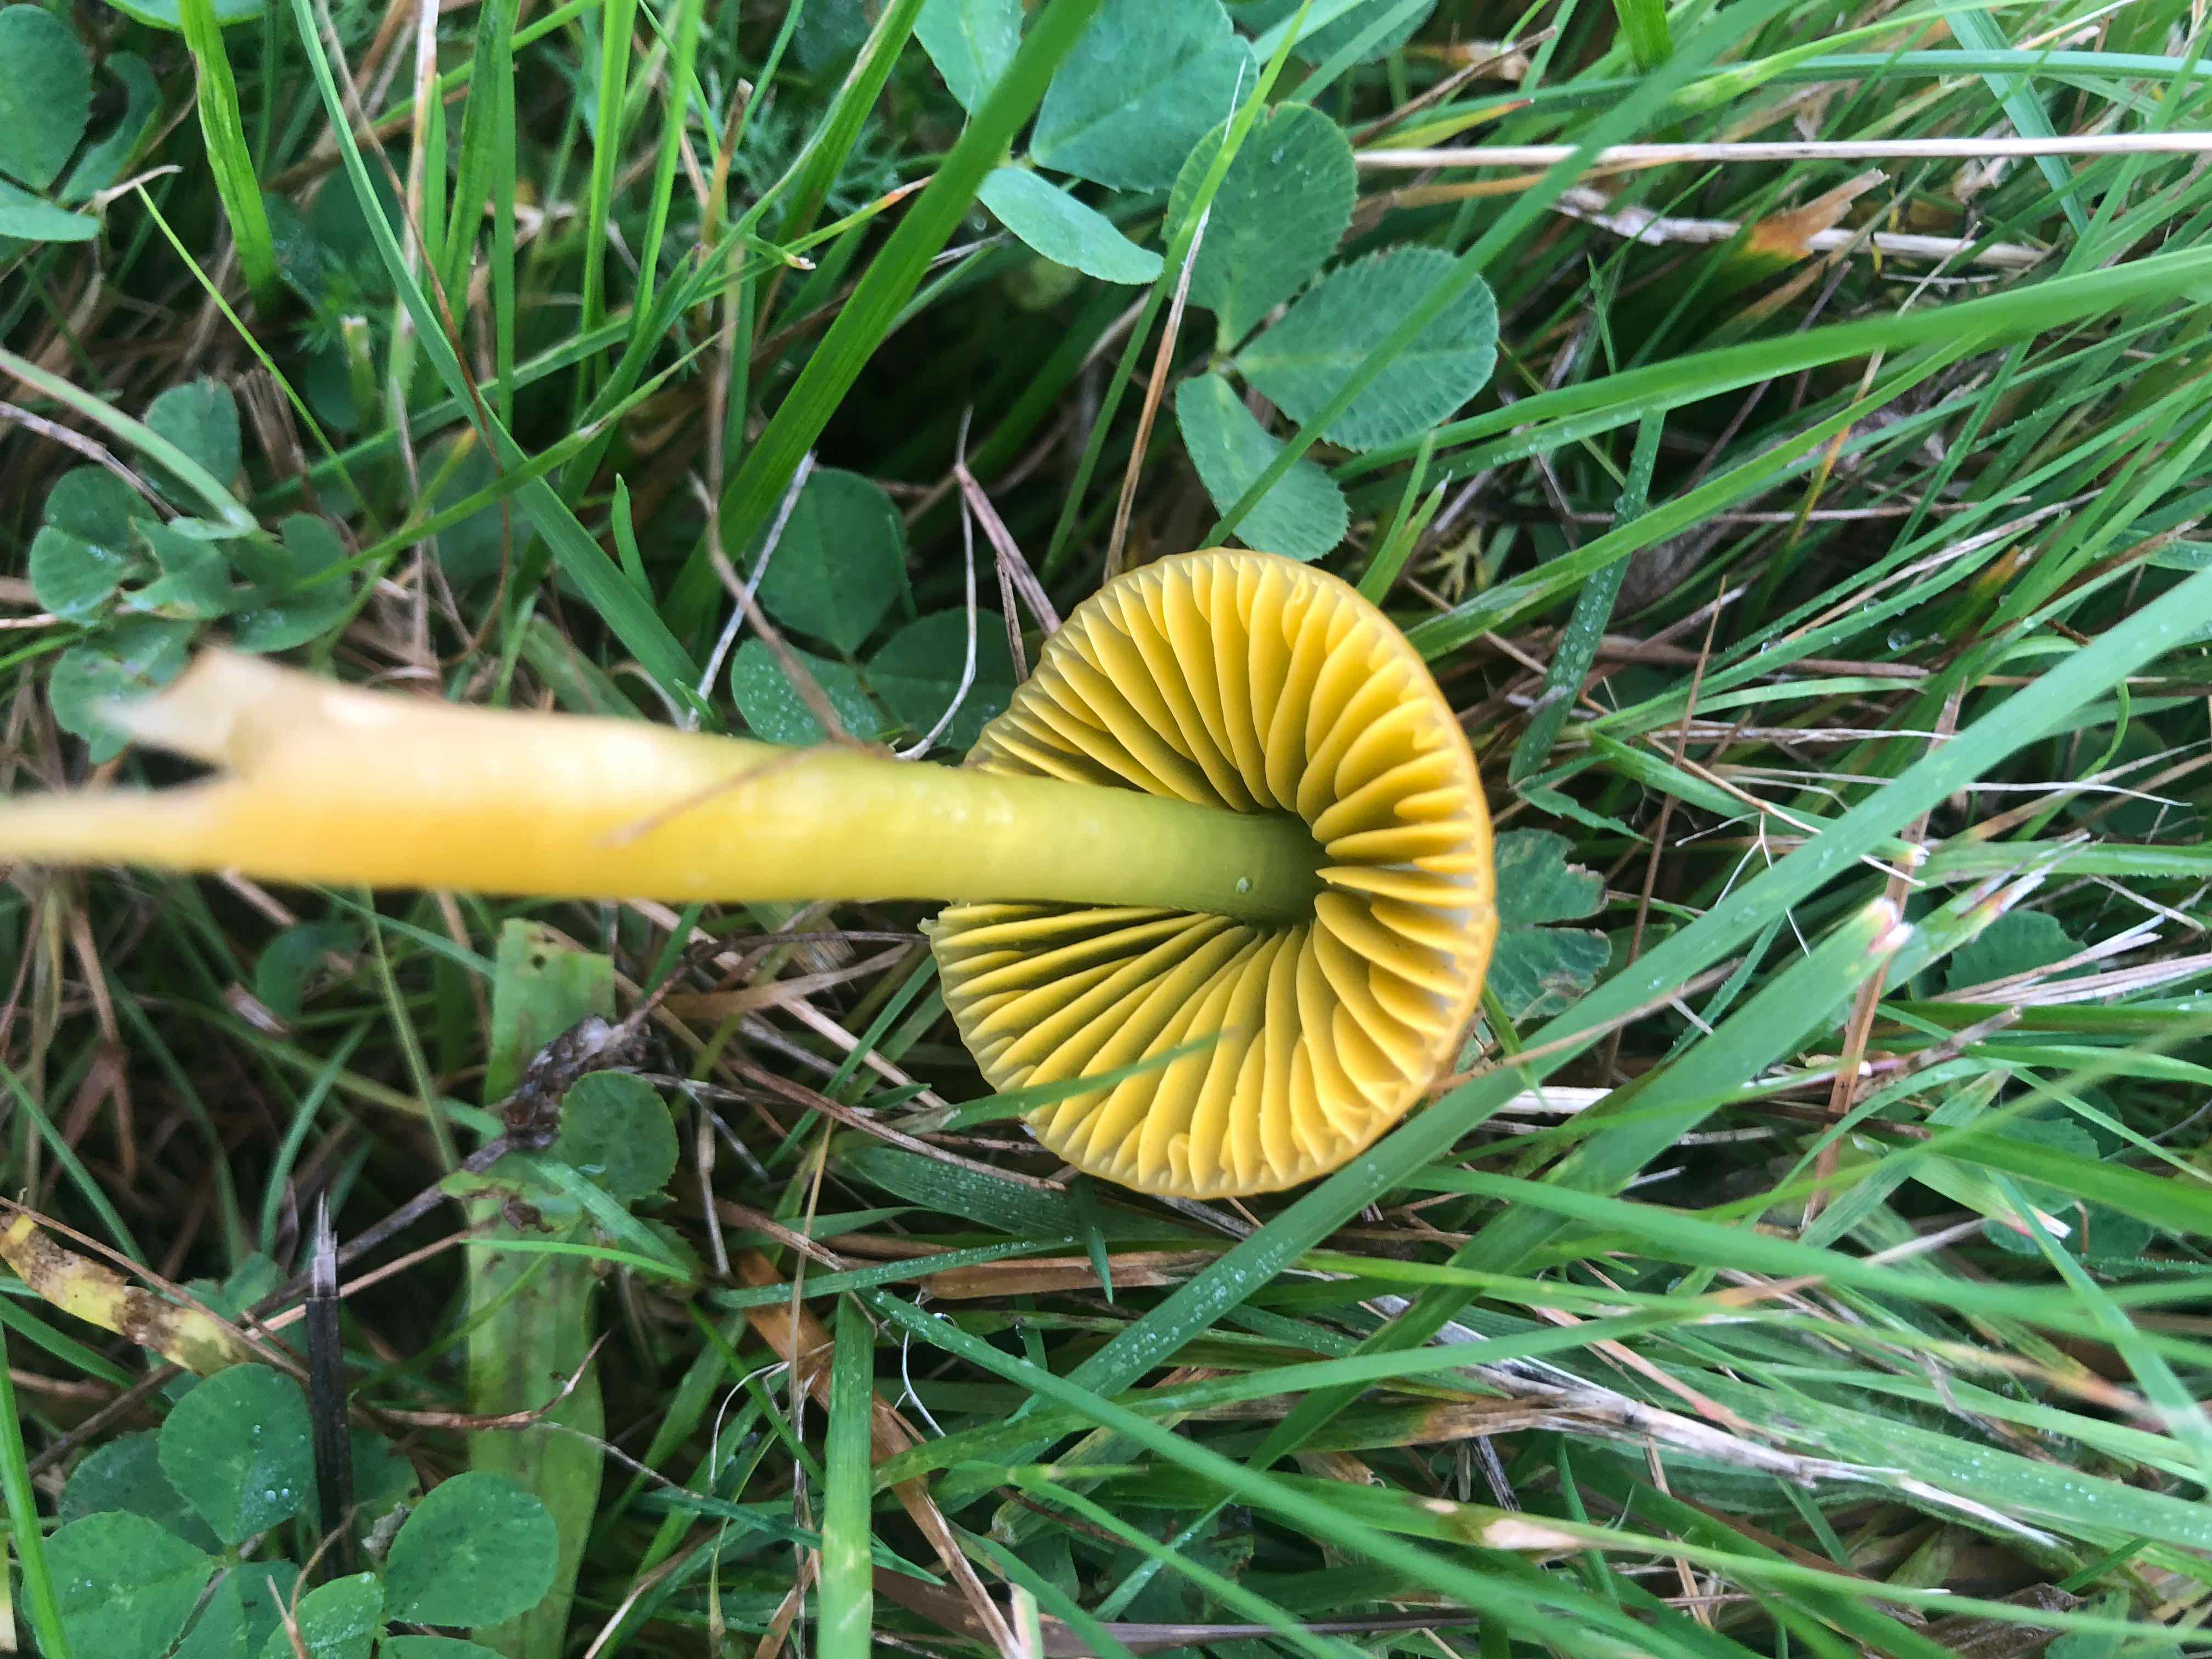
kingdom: Fungi
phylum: Basidiomycota
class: Agaricomycetes
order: Agaricales
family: Hygrophoraceae
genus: Gliophorus
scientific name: Gliophorus psittacinus
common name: papegøje-vokshat
